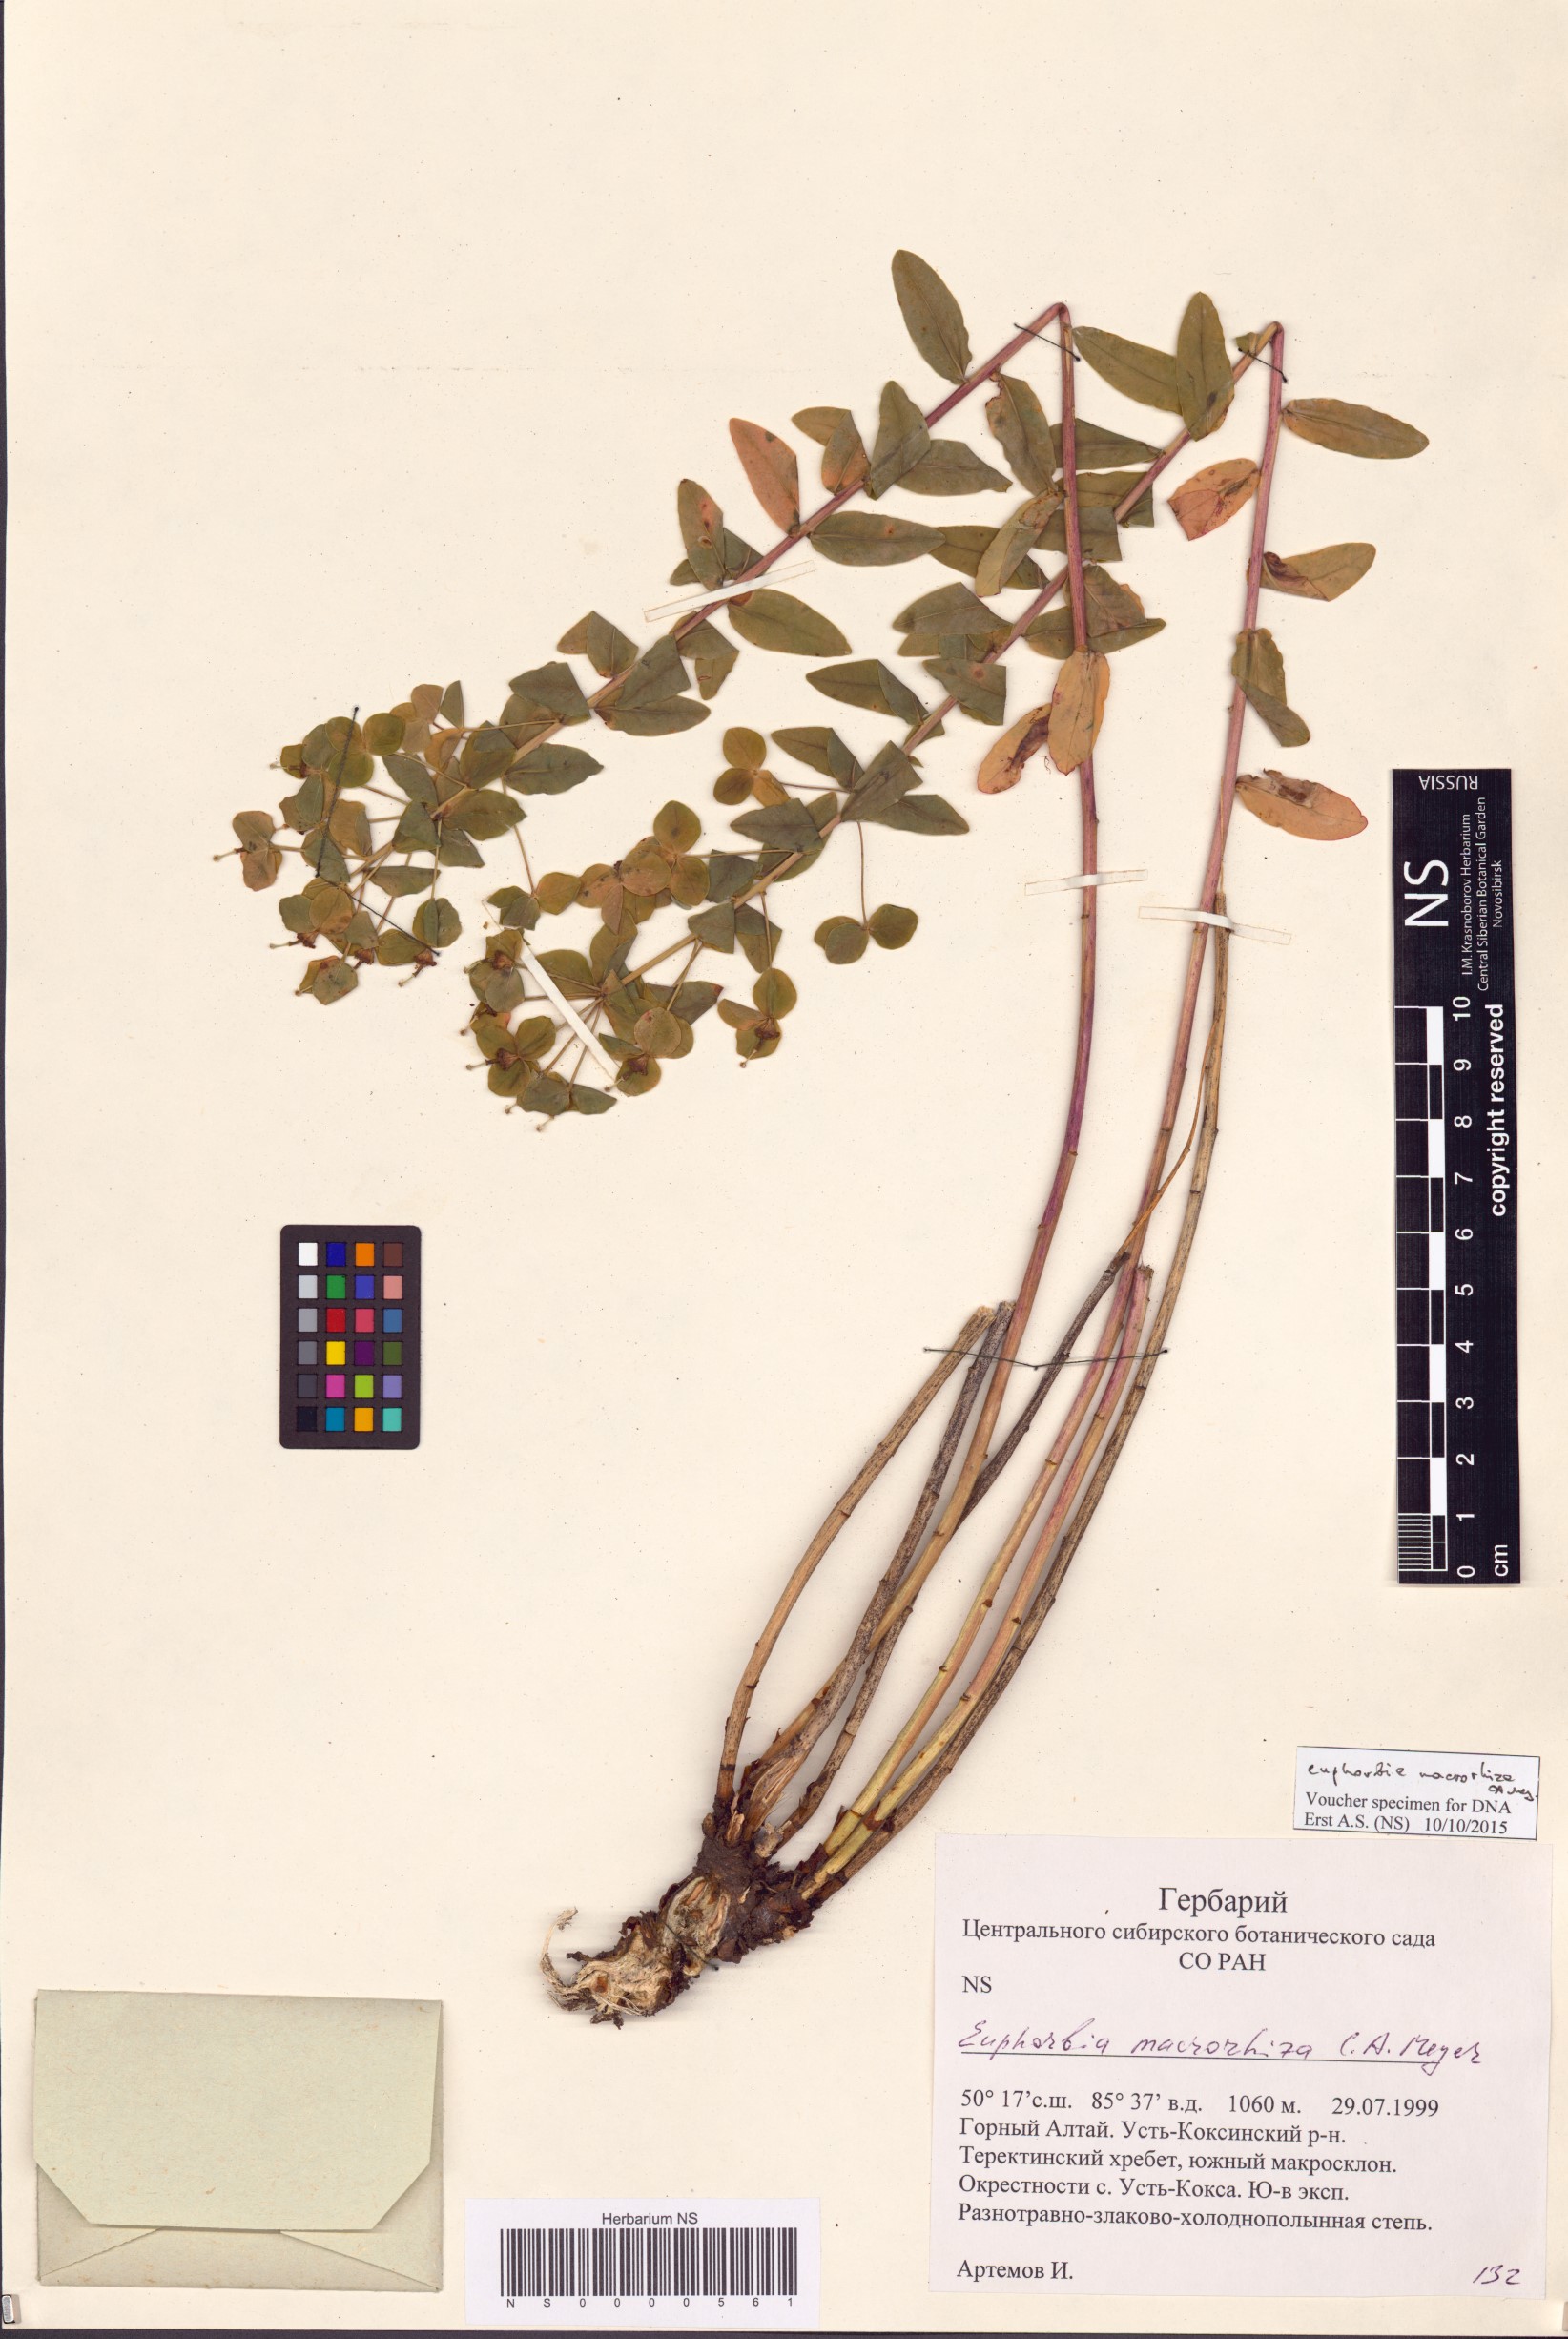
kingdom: Plantae
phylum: Tracheophyta
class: Magnoliopsida
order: Malpighiales
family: Euphorbiaceae
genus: Euphorbia
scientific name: Euphorbia macrorhiza
